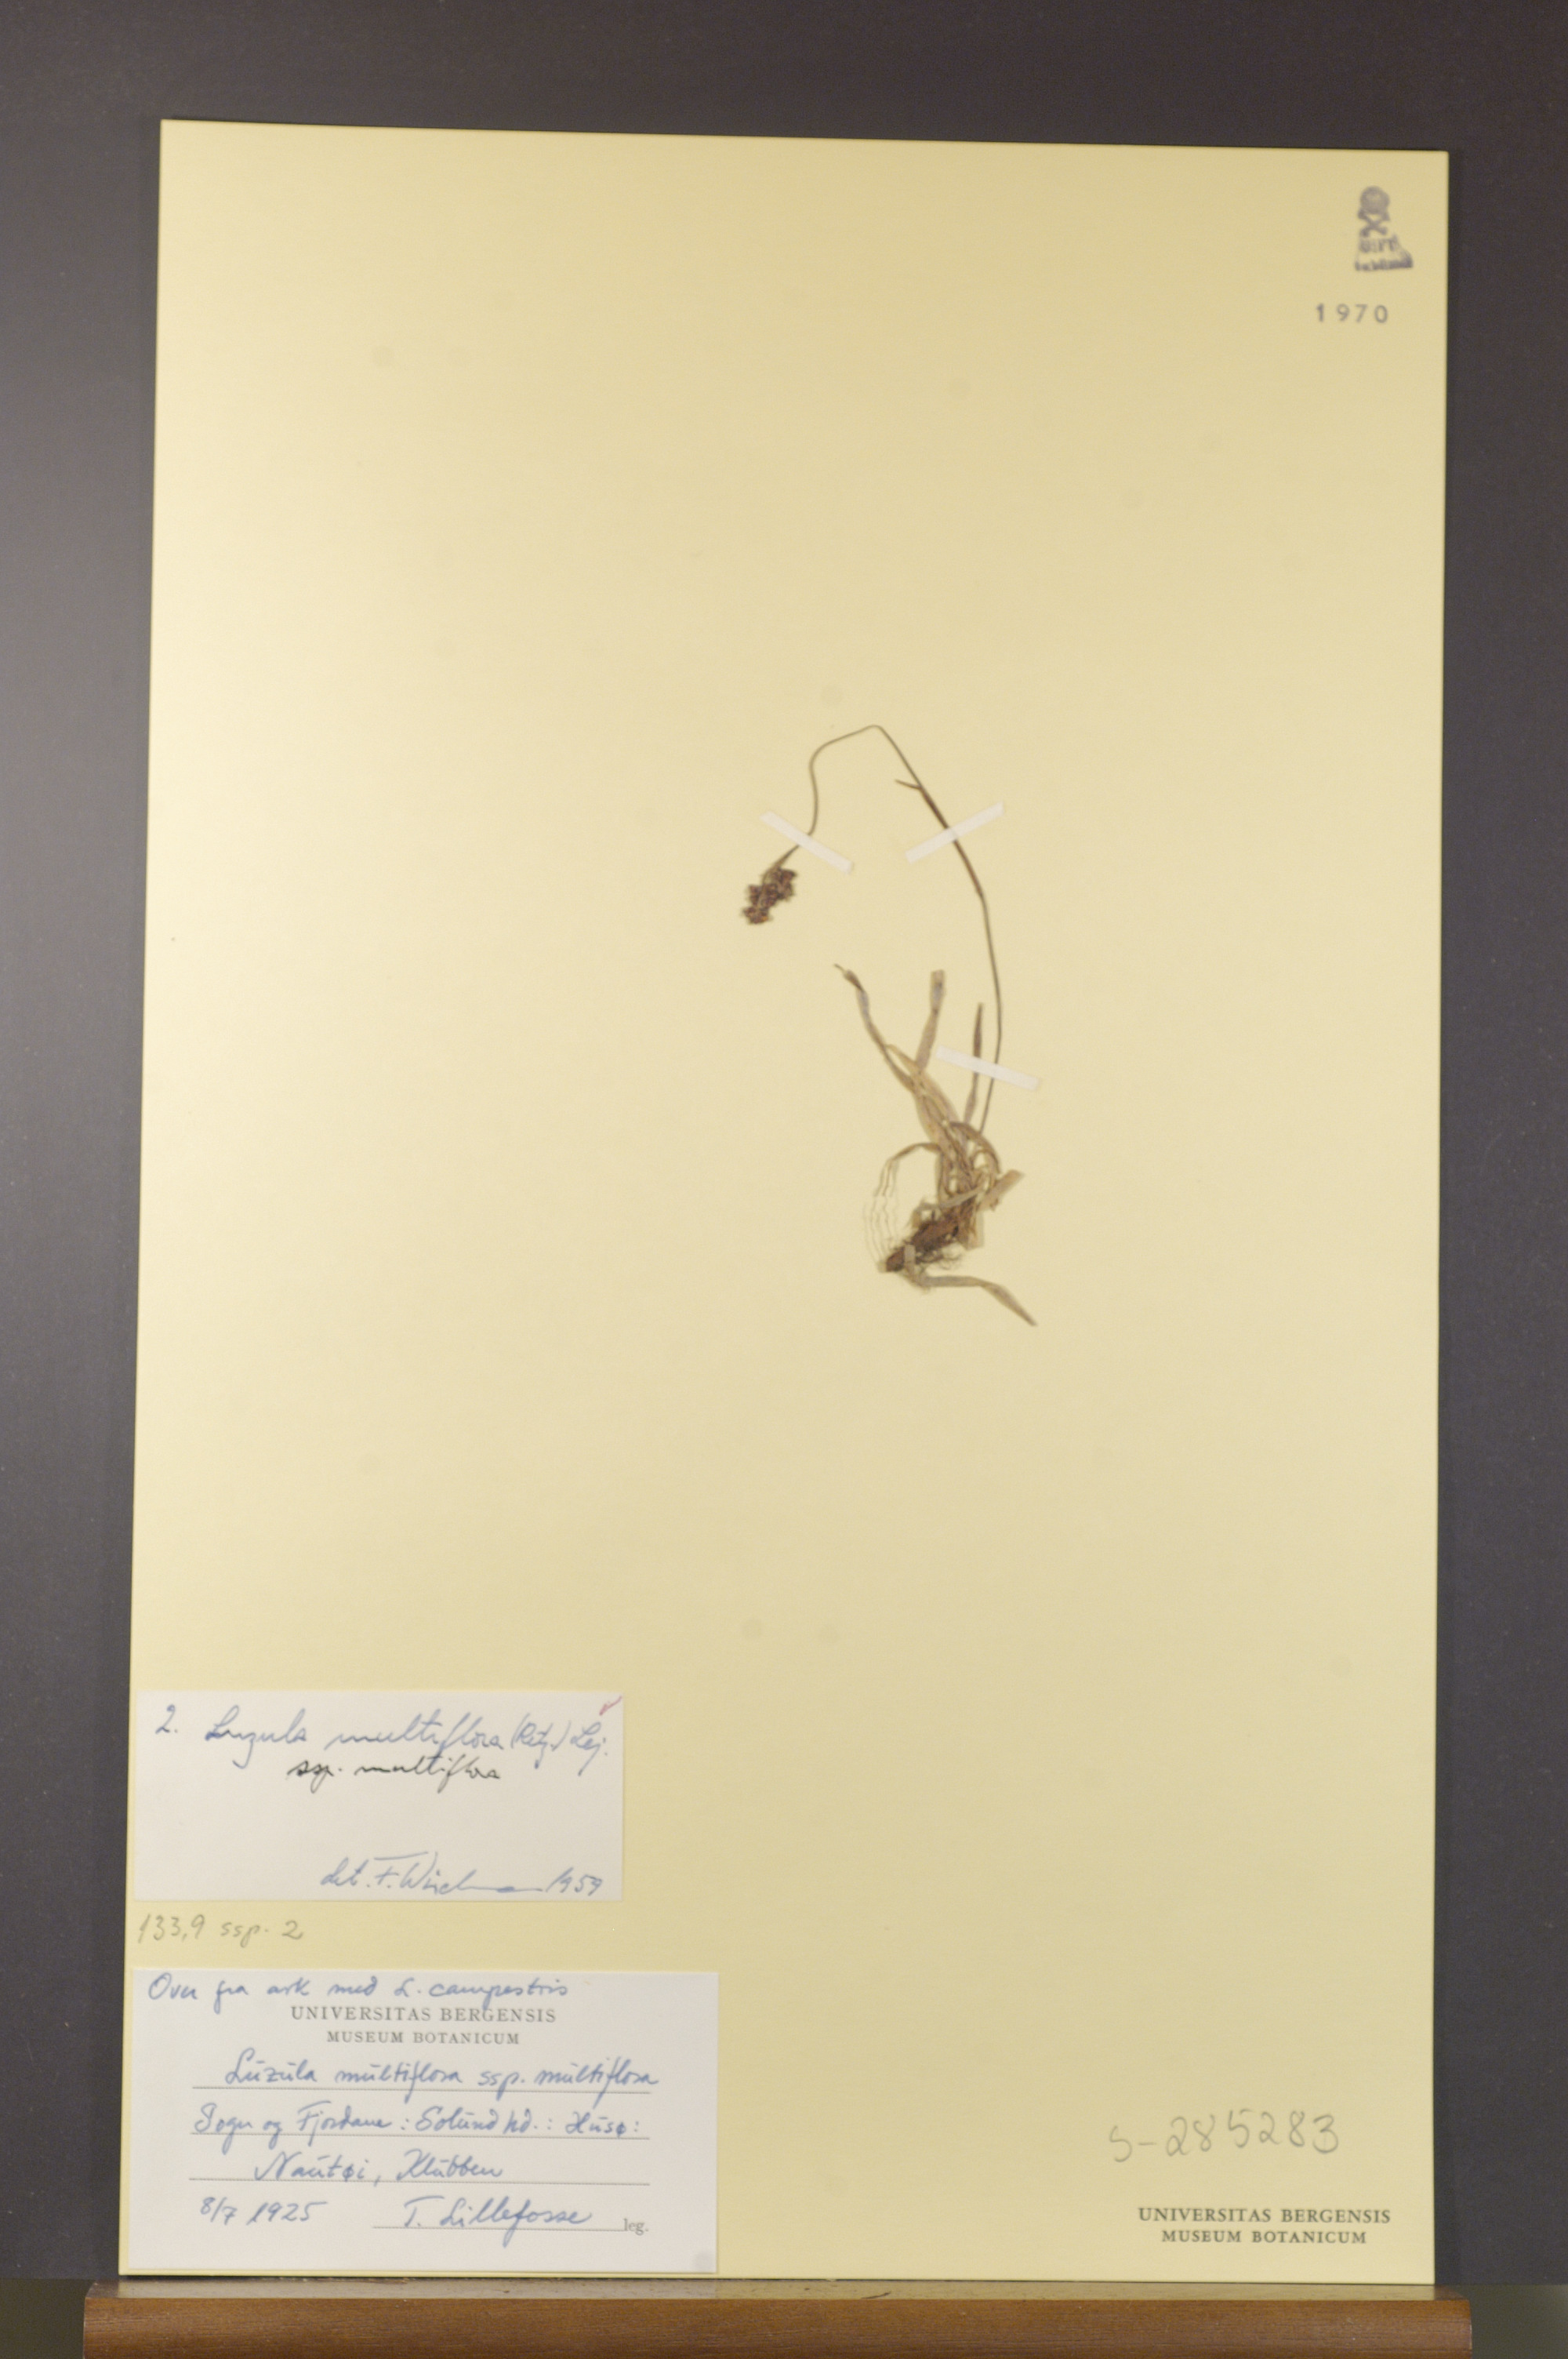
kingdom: Plantae
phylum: Tracheophyta
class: Liliopsida
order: Poales
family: Juncaceae
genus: Luzula
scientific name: Luzula multiflora
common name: Heath wood-rush
